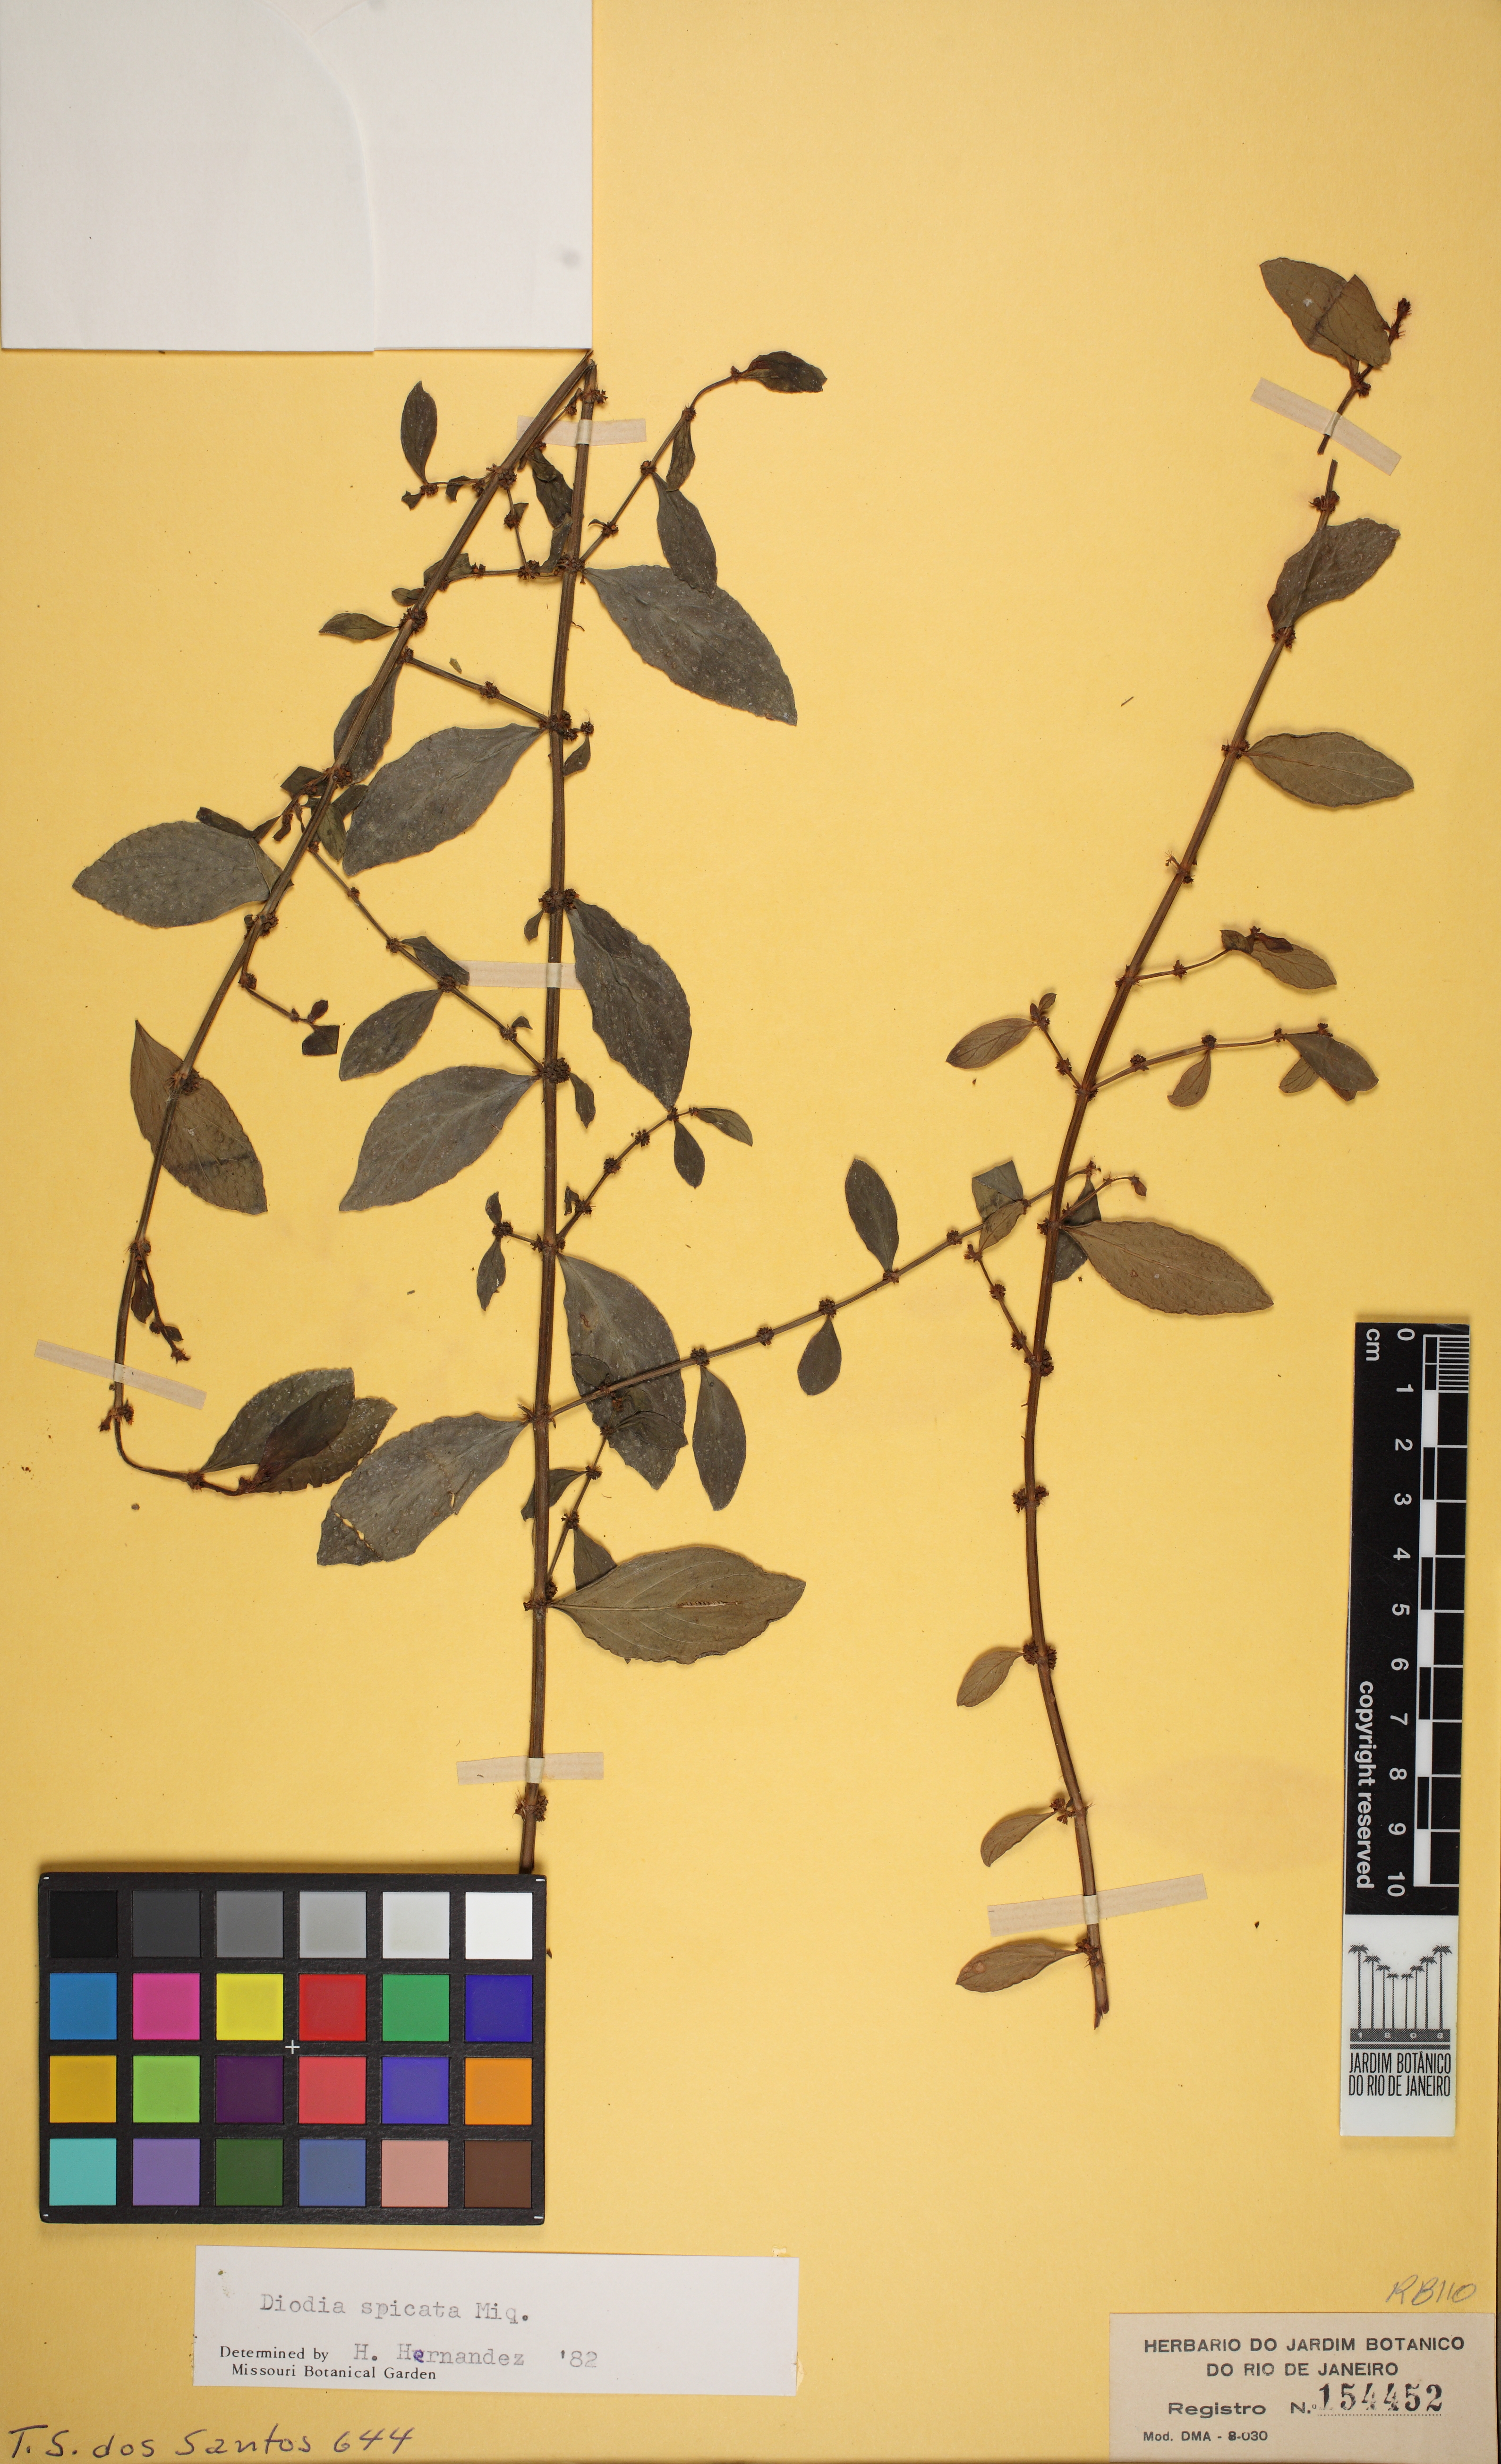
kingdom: Plantae
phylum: Tracheophyta
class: Magnoliopsida
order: Gentianales
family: Rubiaceae
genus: Galianthe
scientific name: Galianthe spicata
